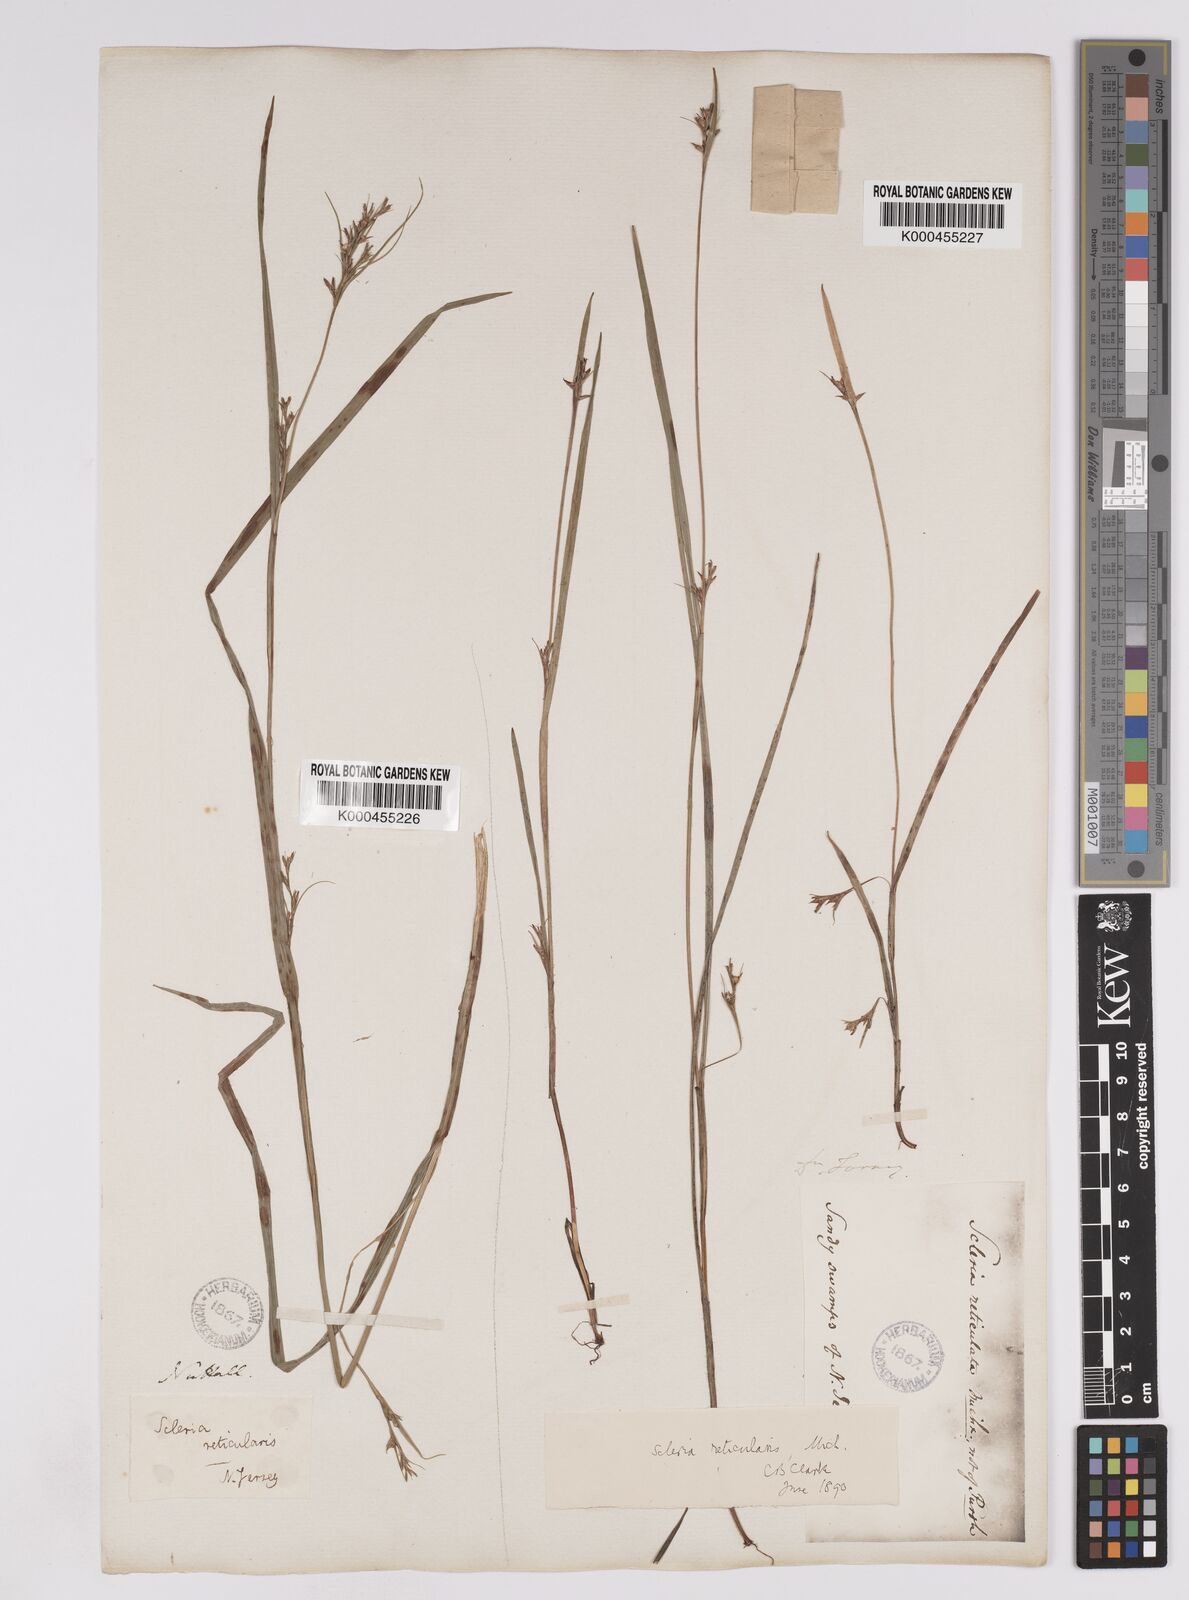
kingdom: Plantae
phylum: Tracheophyta
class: Liliopsida
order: Poales
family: Cyperaceae
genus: Scleria
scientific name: Scleria
